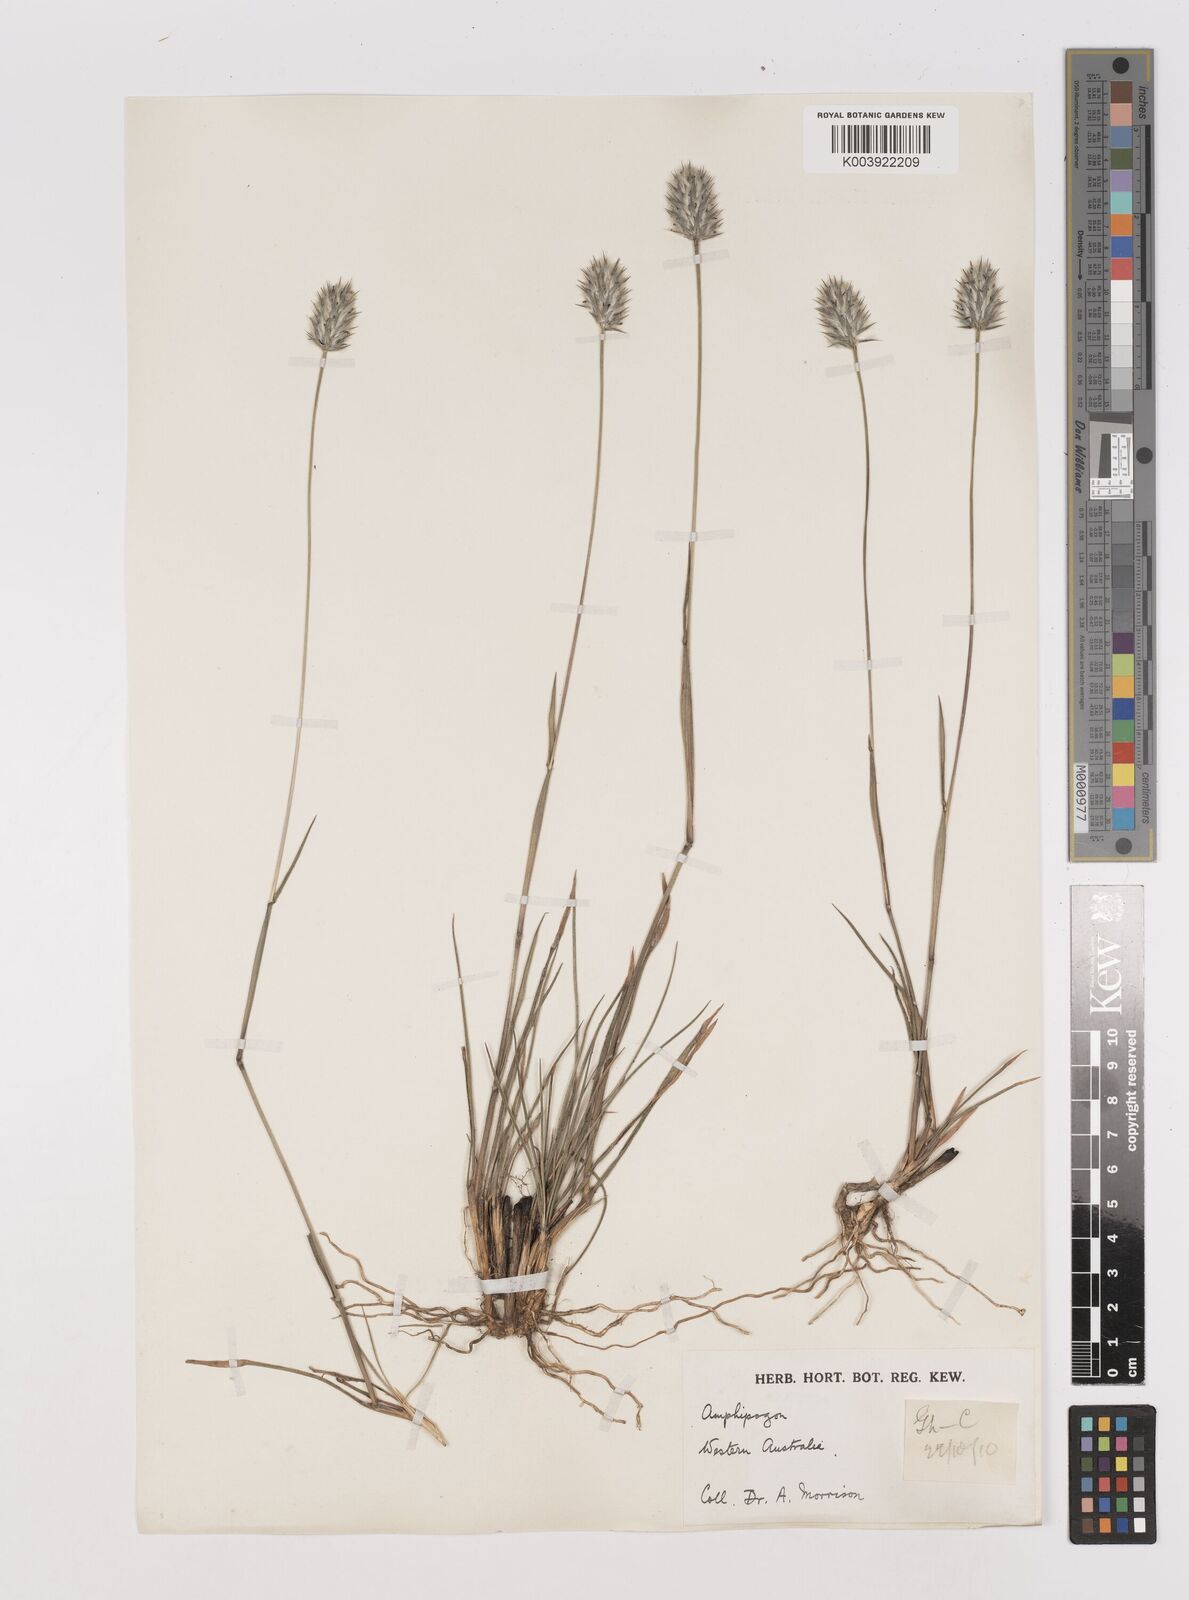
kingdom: Plantae
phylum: Tracheophyta
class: Liliopsida
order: Poales
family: Poaceae
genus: Neurachne
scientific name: Neurachne alopecuroidea
